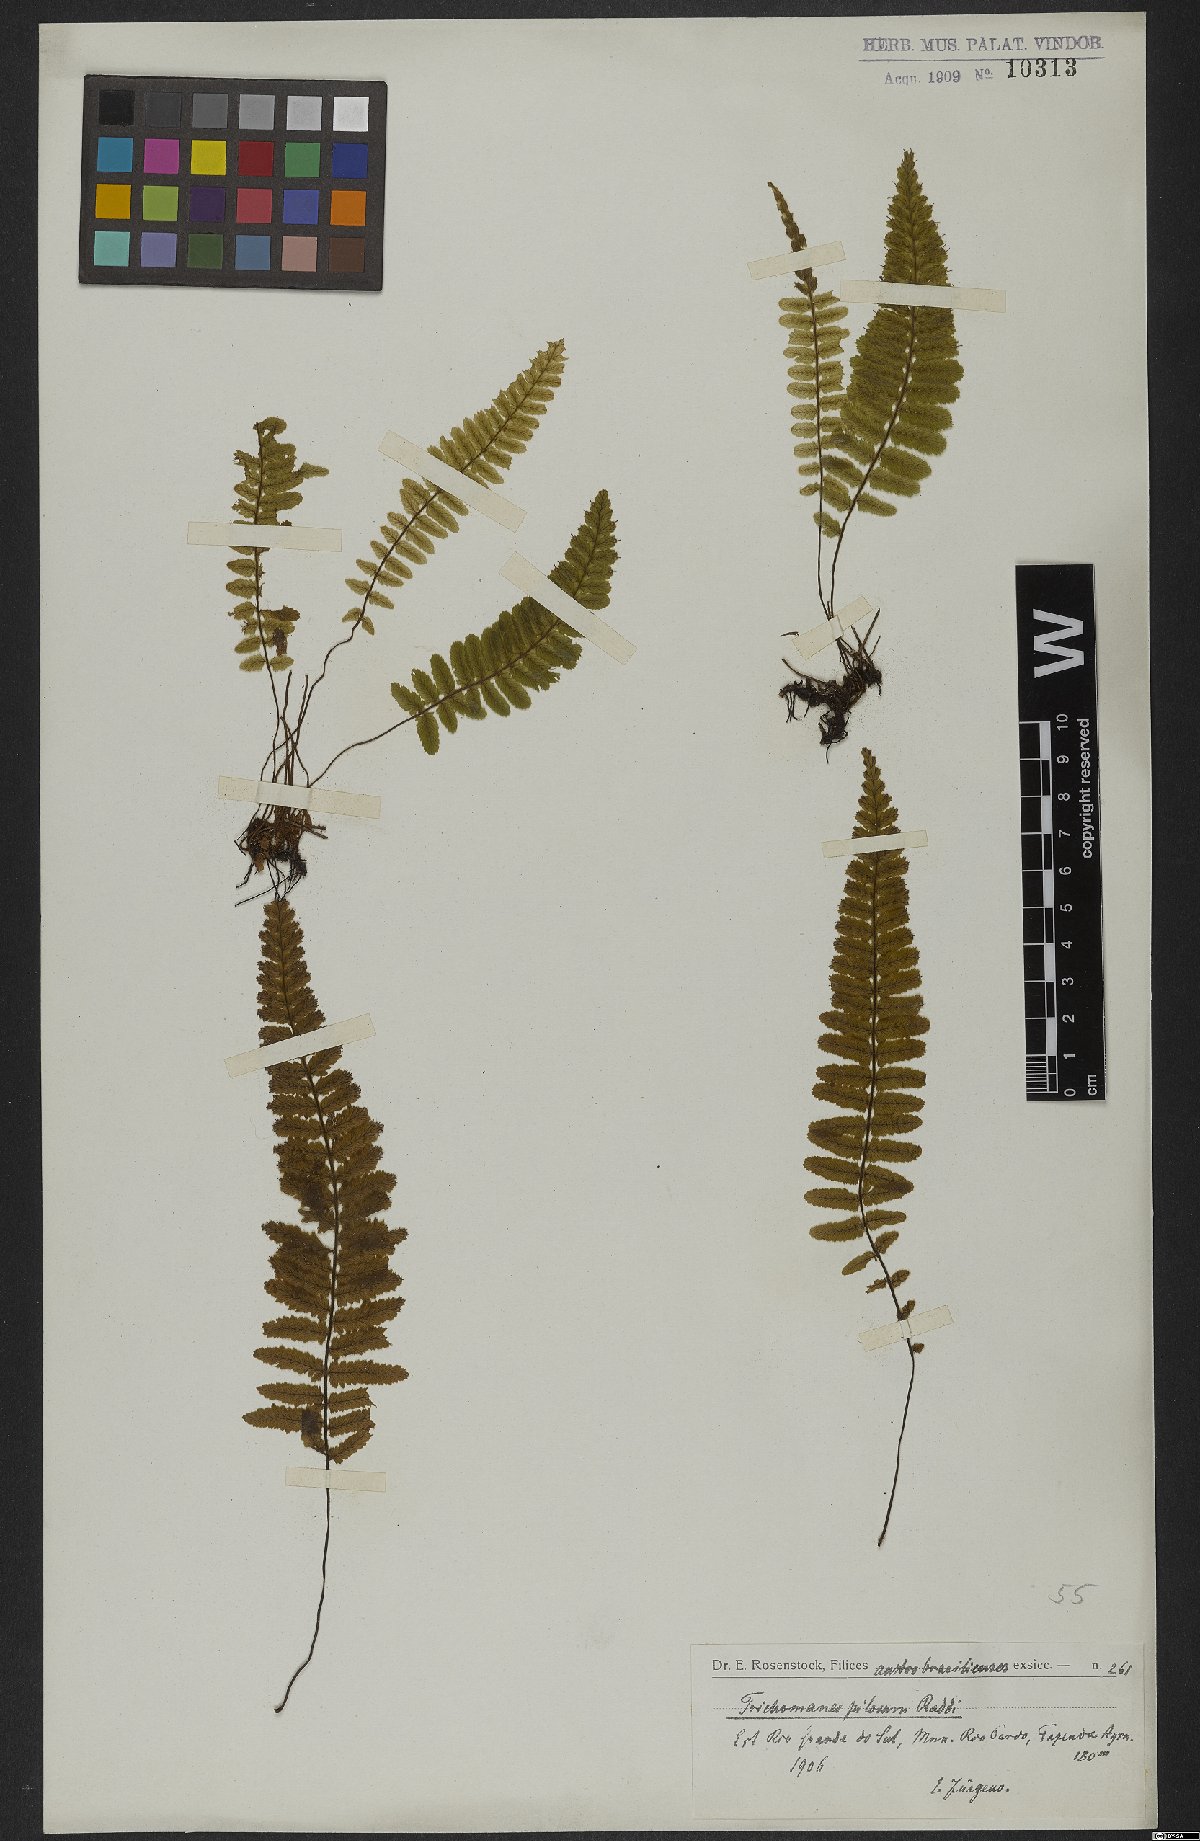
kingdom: Plantae
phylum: Tracheophyta
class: Polypodiopsida
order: Hymenophyllales
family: Hymenophyllaceae
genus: Trichomanes
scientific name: Trichomanes pilosum
